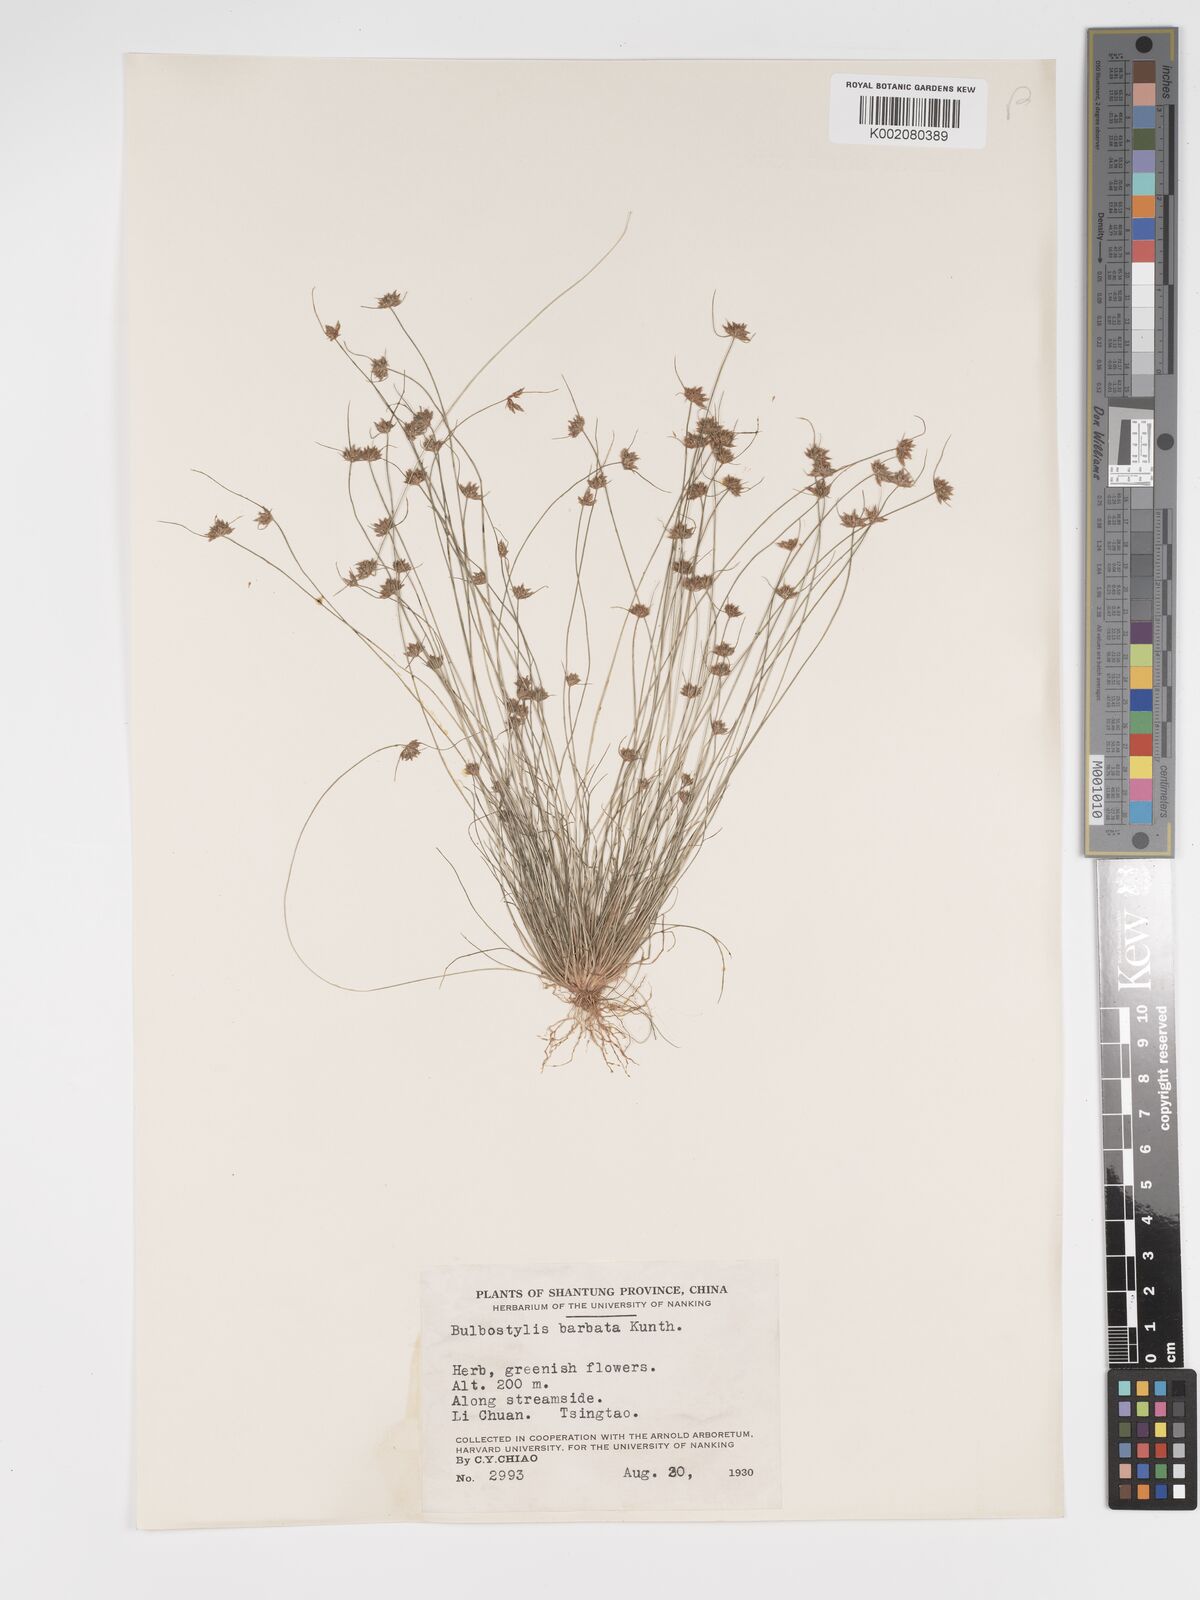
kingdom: Plantae
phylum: Tracheophyta
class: Liliopsida
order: Poales
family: Cyperaceae
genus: Bulbostylis
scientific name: Bulbostylis barbata
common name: Watergrass
